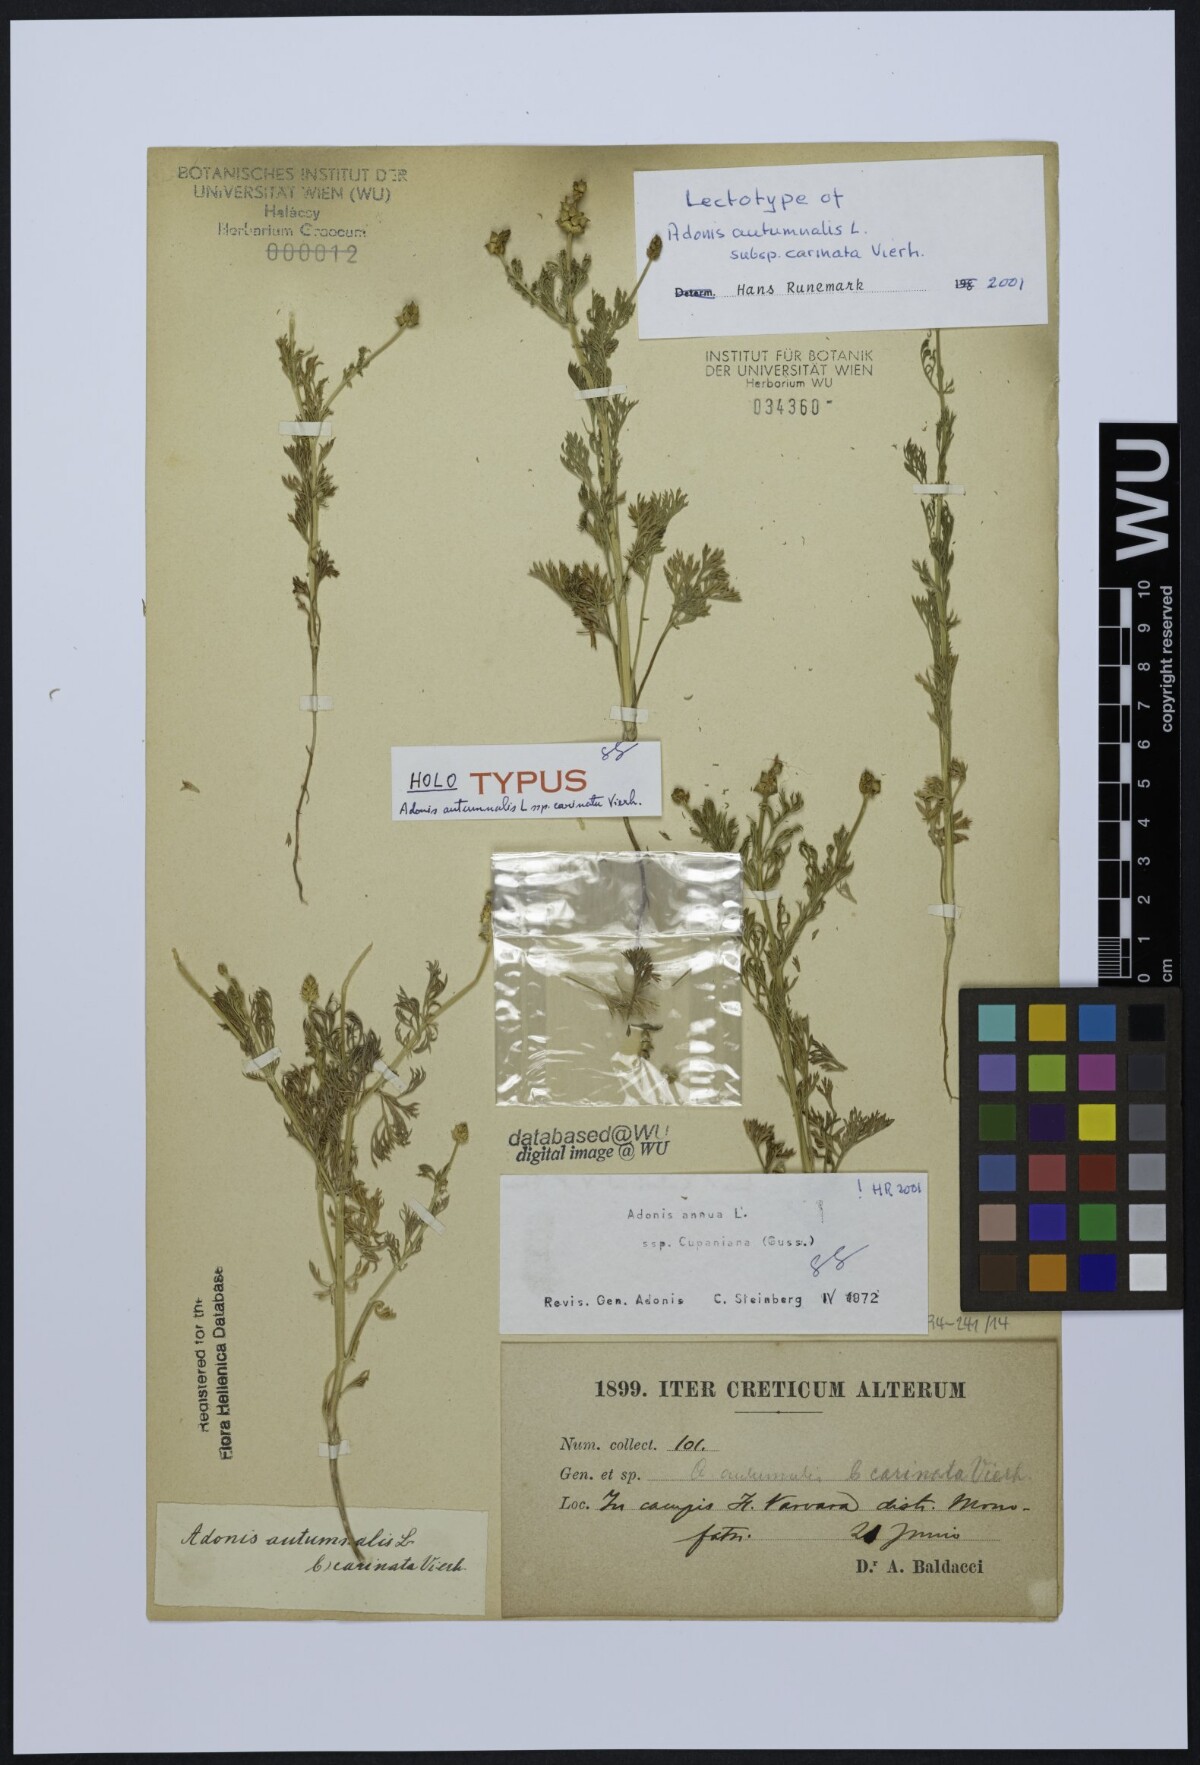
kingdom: Plantae
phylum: Tracheophyta
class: Magnoliopsida
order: Ranunculales
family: Ranunculaceae
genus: Adonis
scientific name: Adonis annua
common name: Pheasant's-eye
